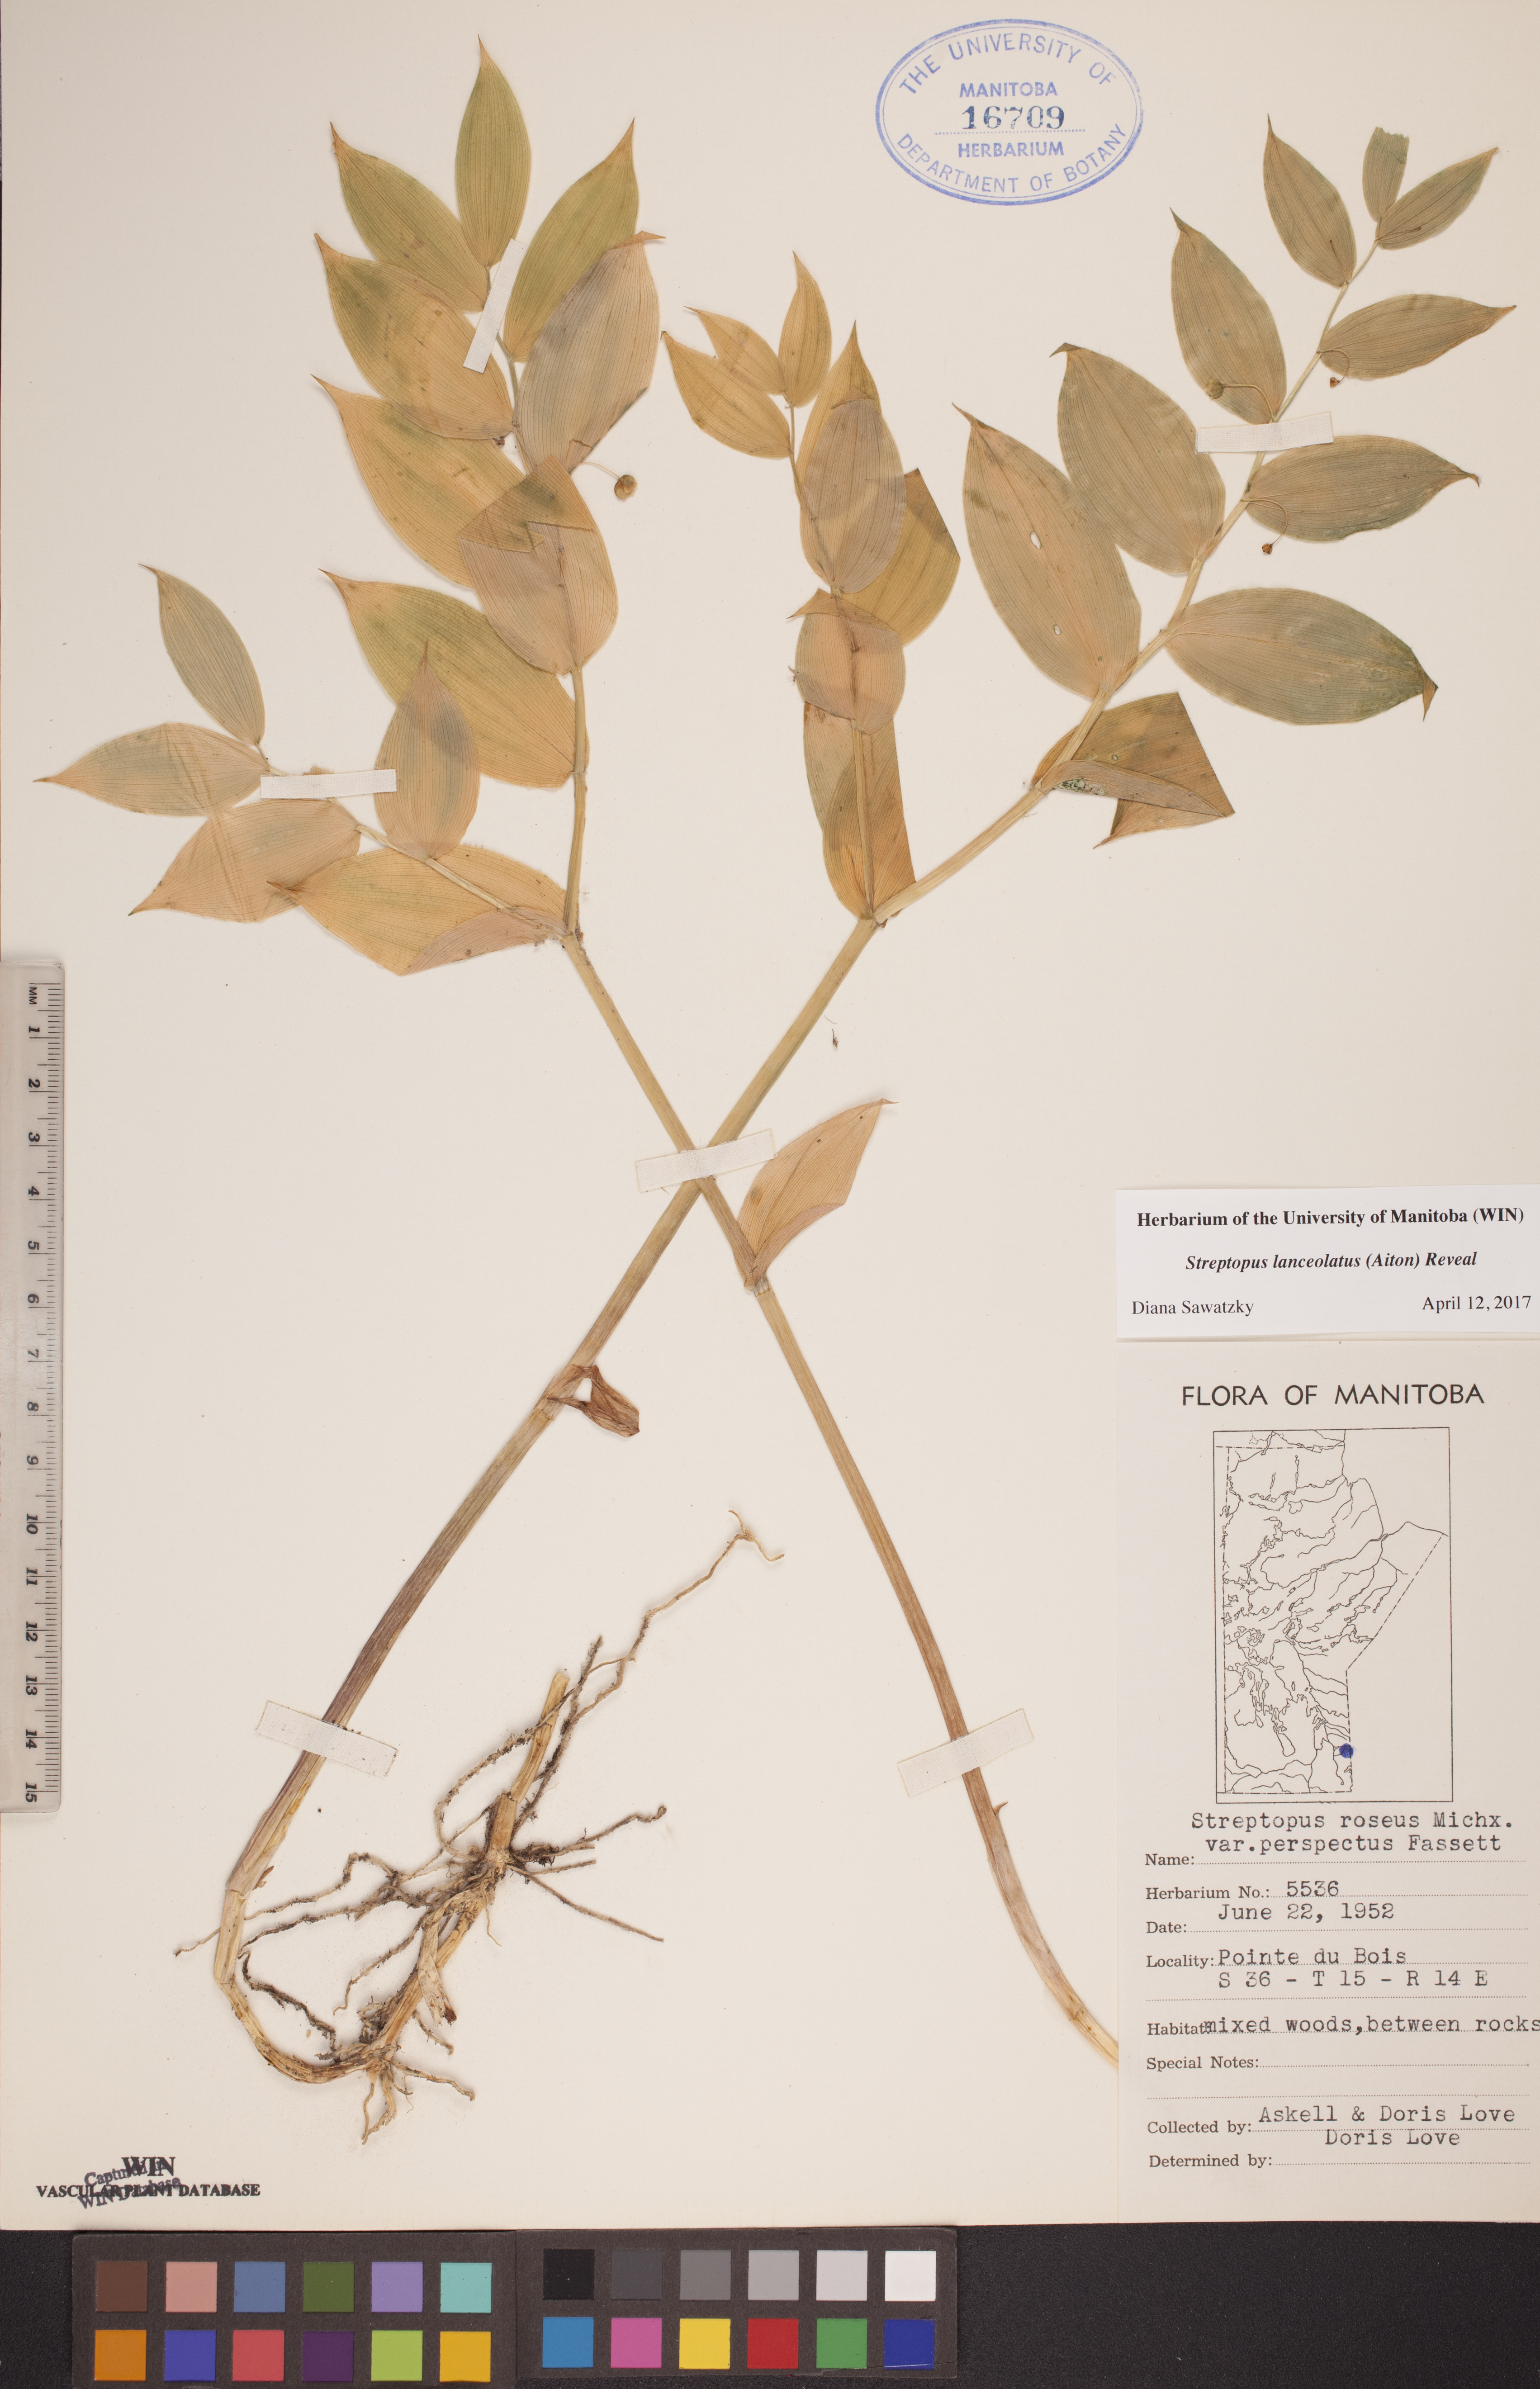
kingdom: Plantae
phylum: Tracheophyta
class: Liliopsida
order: Liliales
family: Liliaceae
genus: Streptopus
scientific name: Streptopus lanceolatus
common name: Rose mandarin
